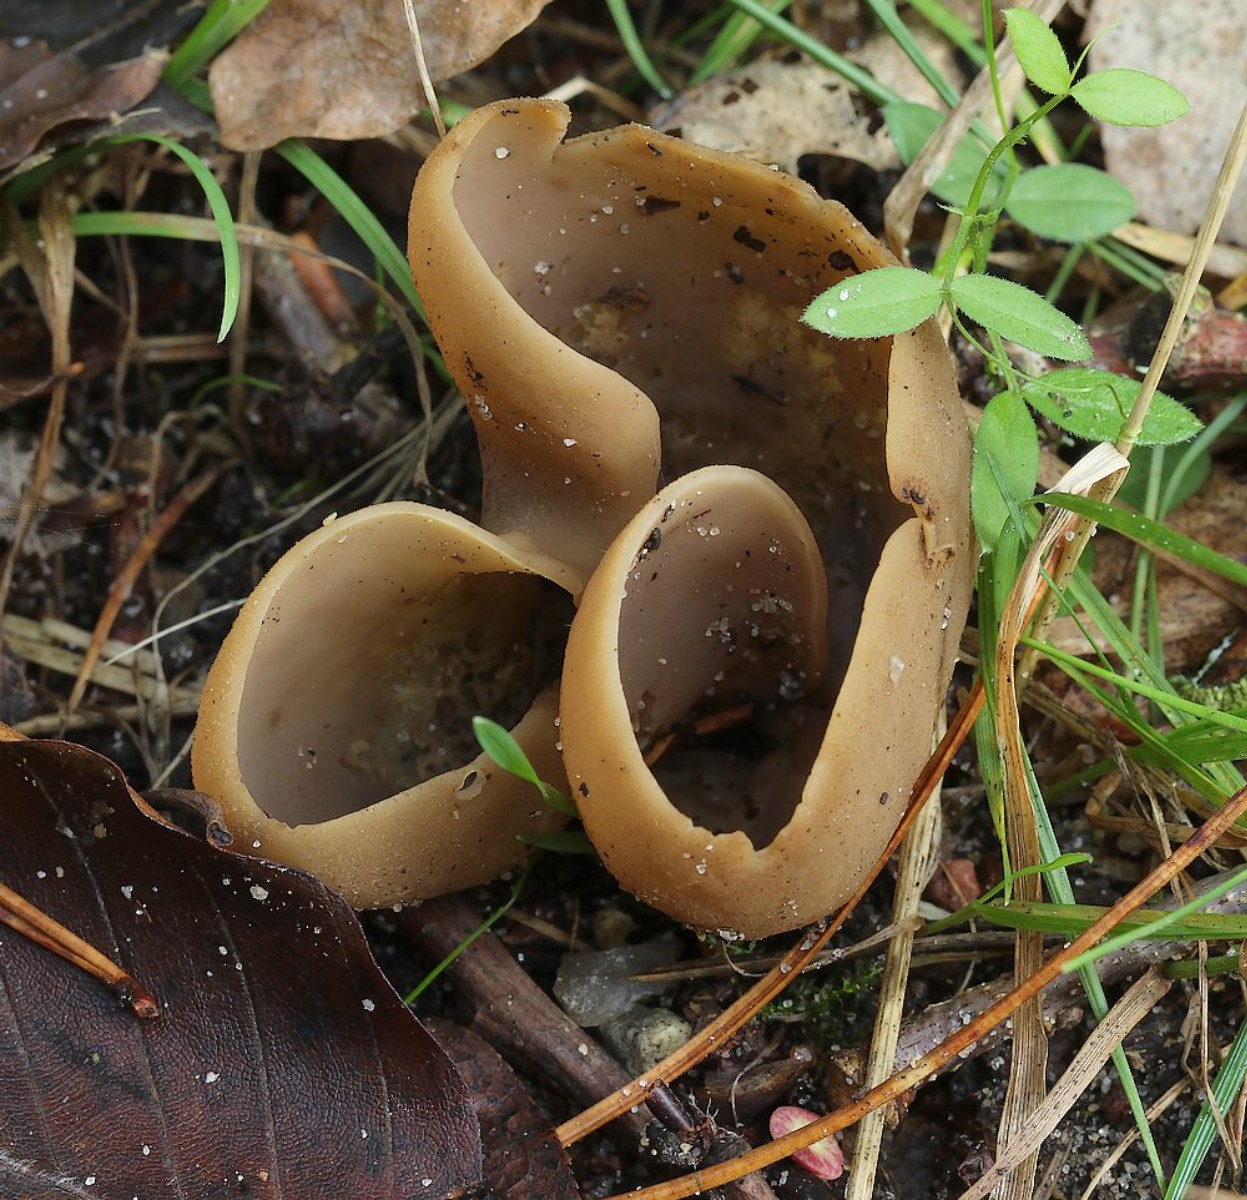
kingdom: Fungi
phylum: Ascomycota
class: Pezizomycetes
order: Pezizales
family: Otideaceae
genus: Otidea
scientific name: Otidea alutacea
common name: læder-ørebæger
